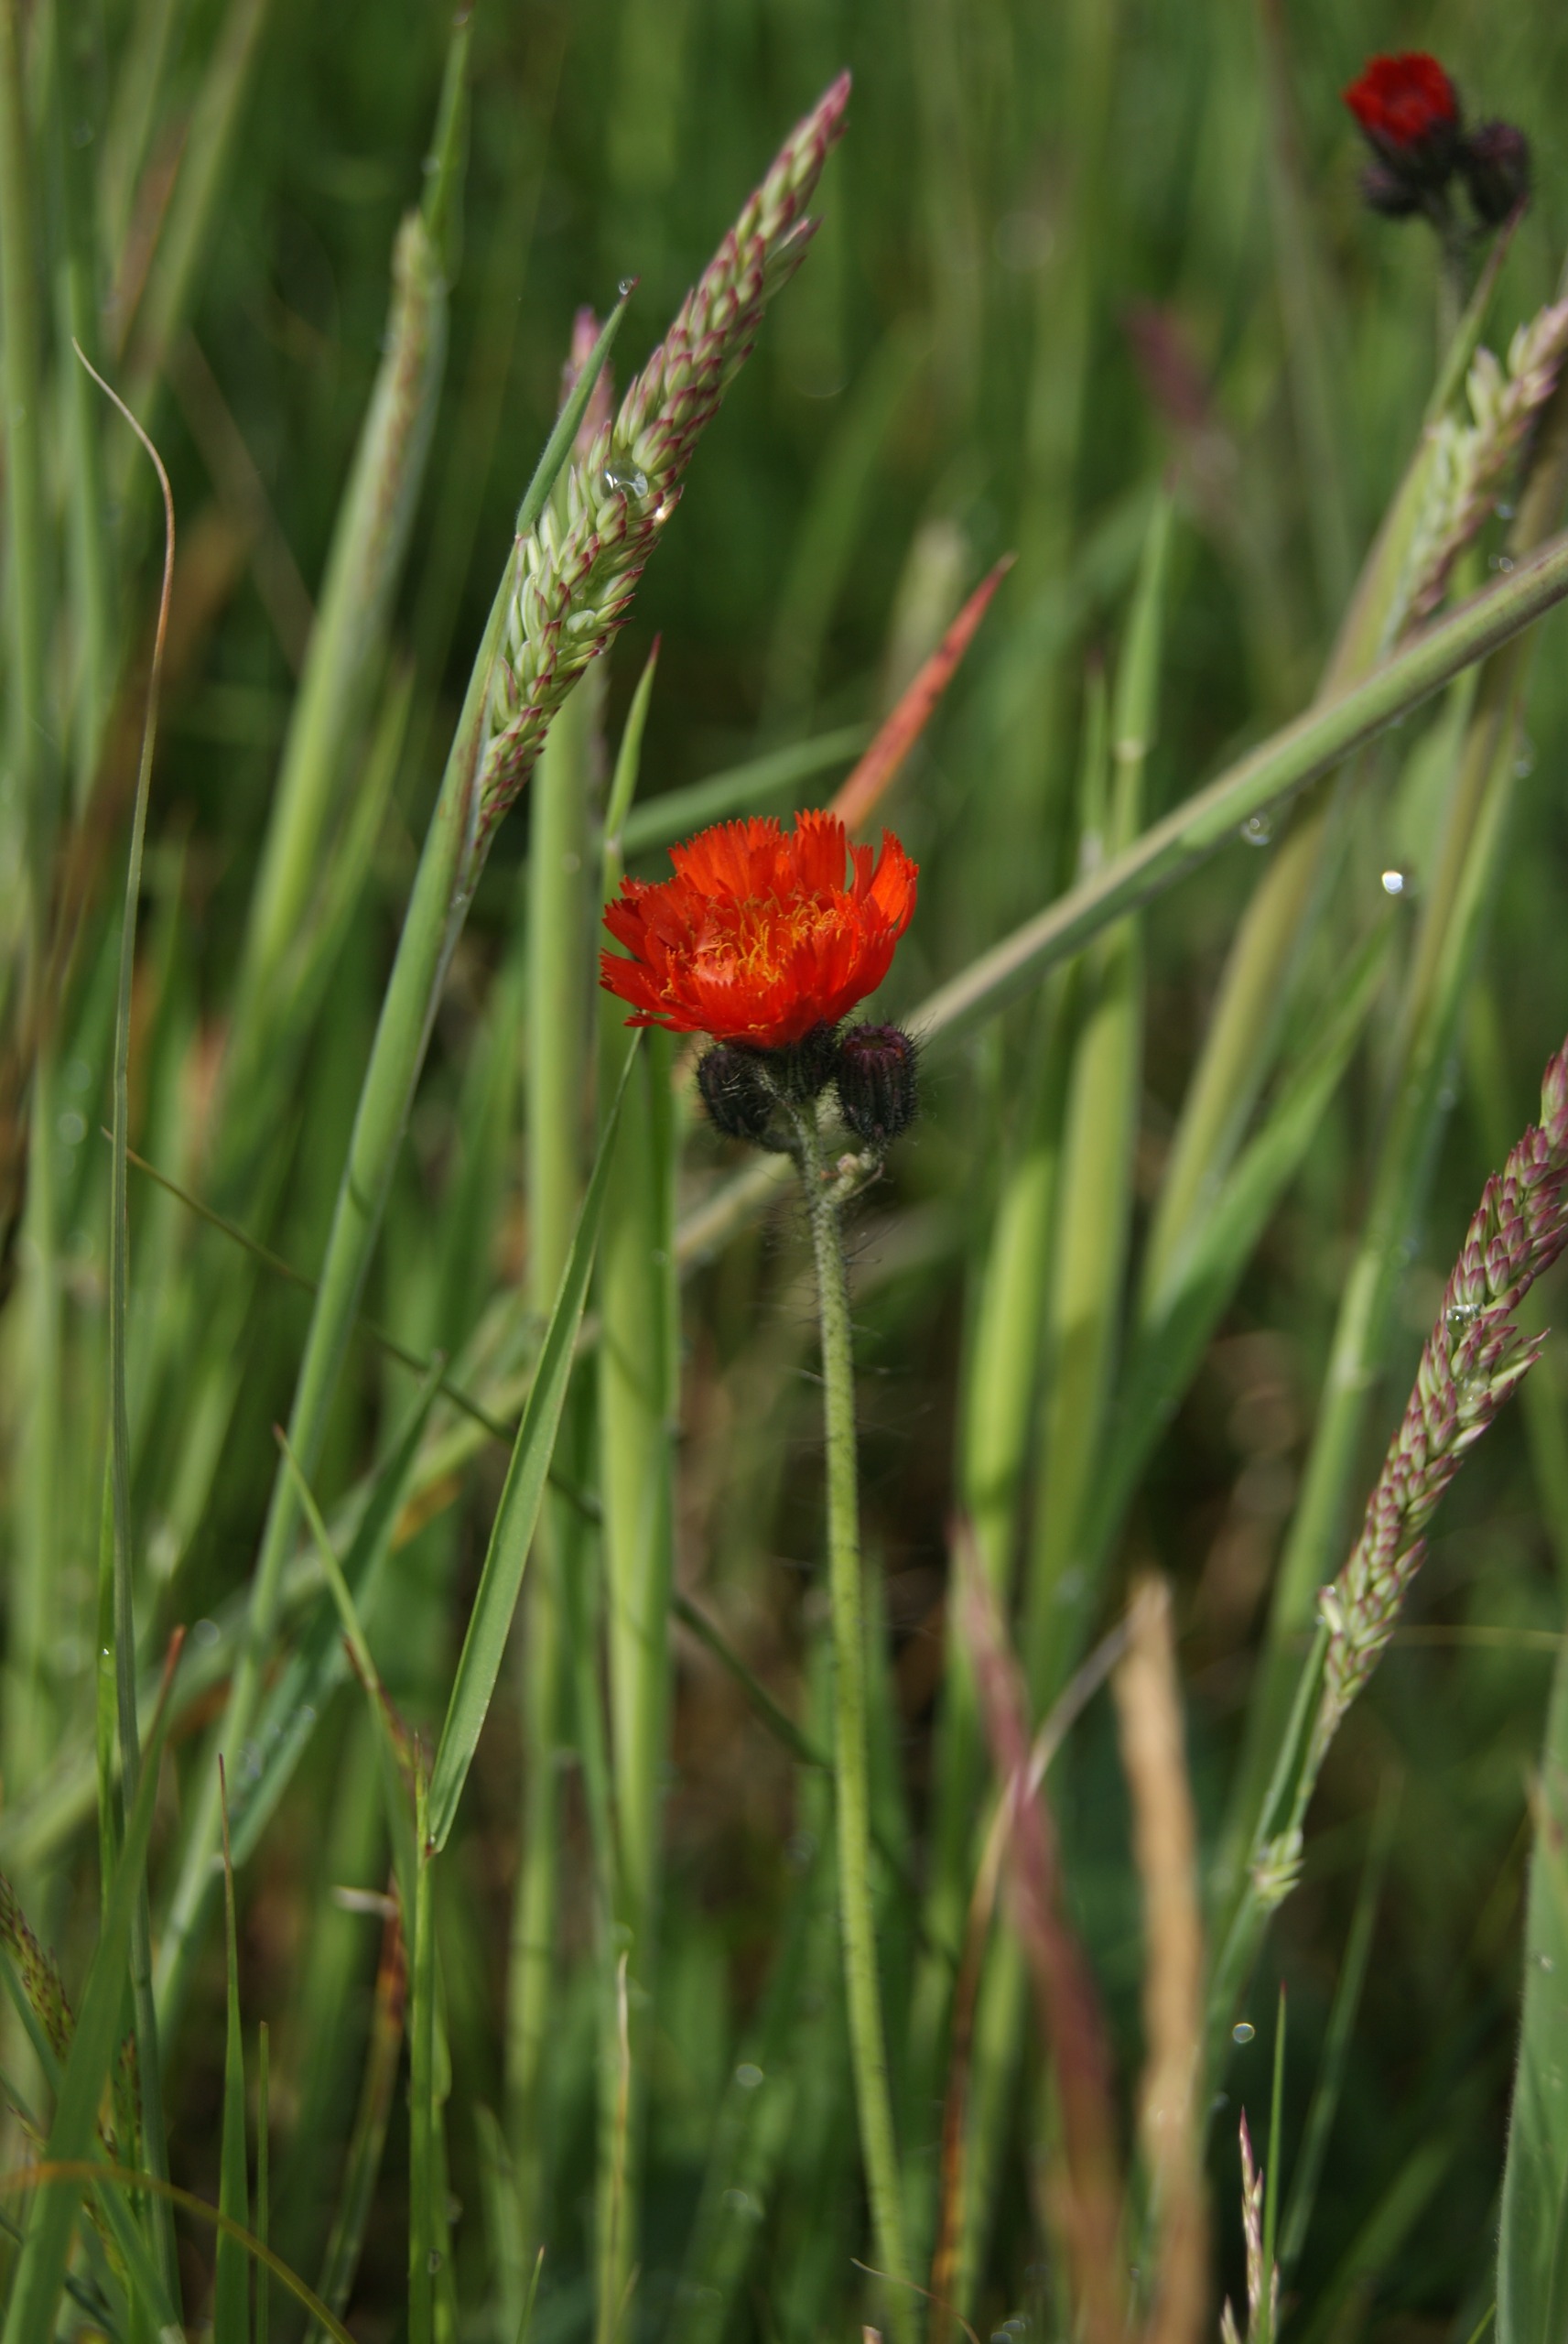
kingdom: Plantae
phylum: Tracheophyta
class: Magnoliopsida
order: Asterales
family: Asteraceae
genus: Pilosella
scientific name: Pilosella aurantiaca
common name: Pomerans-høgeurt
